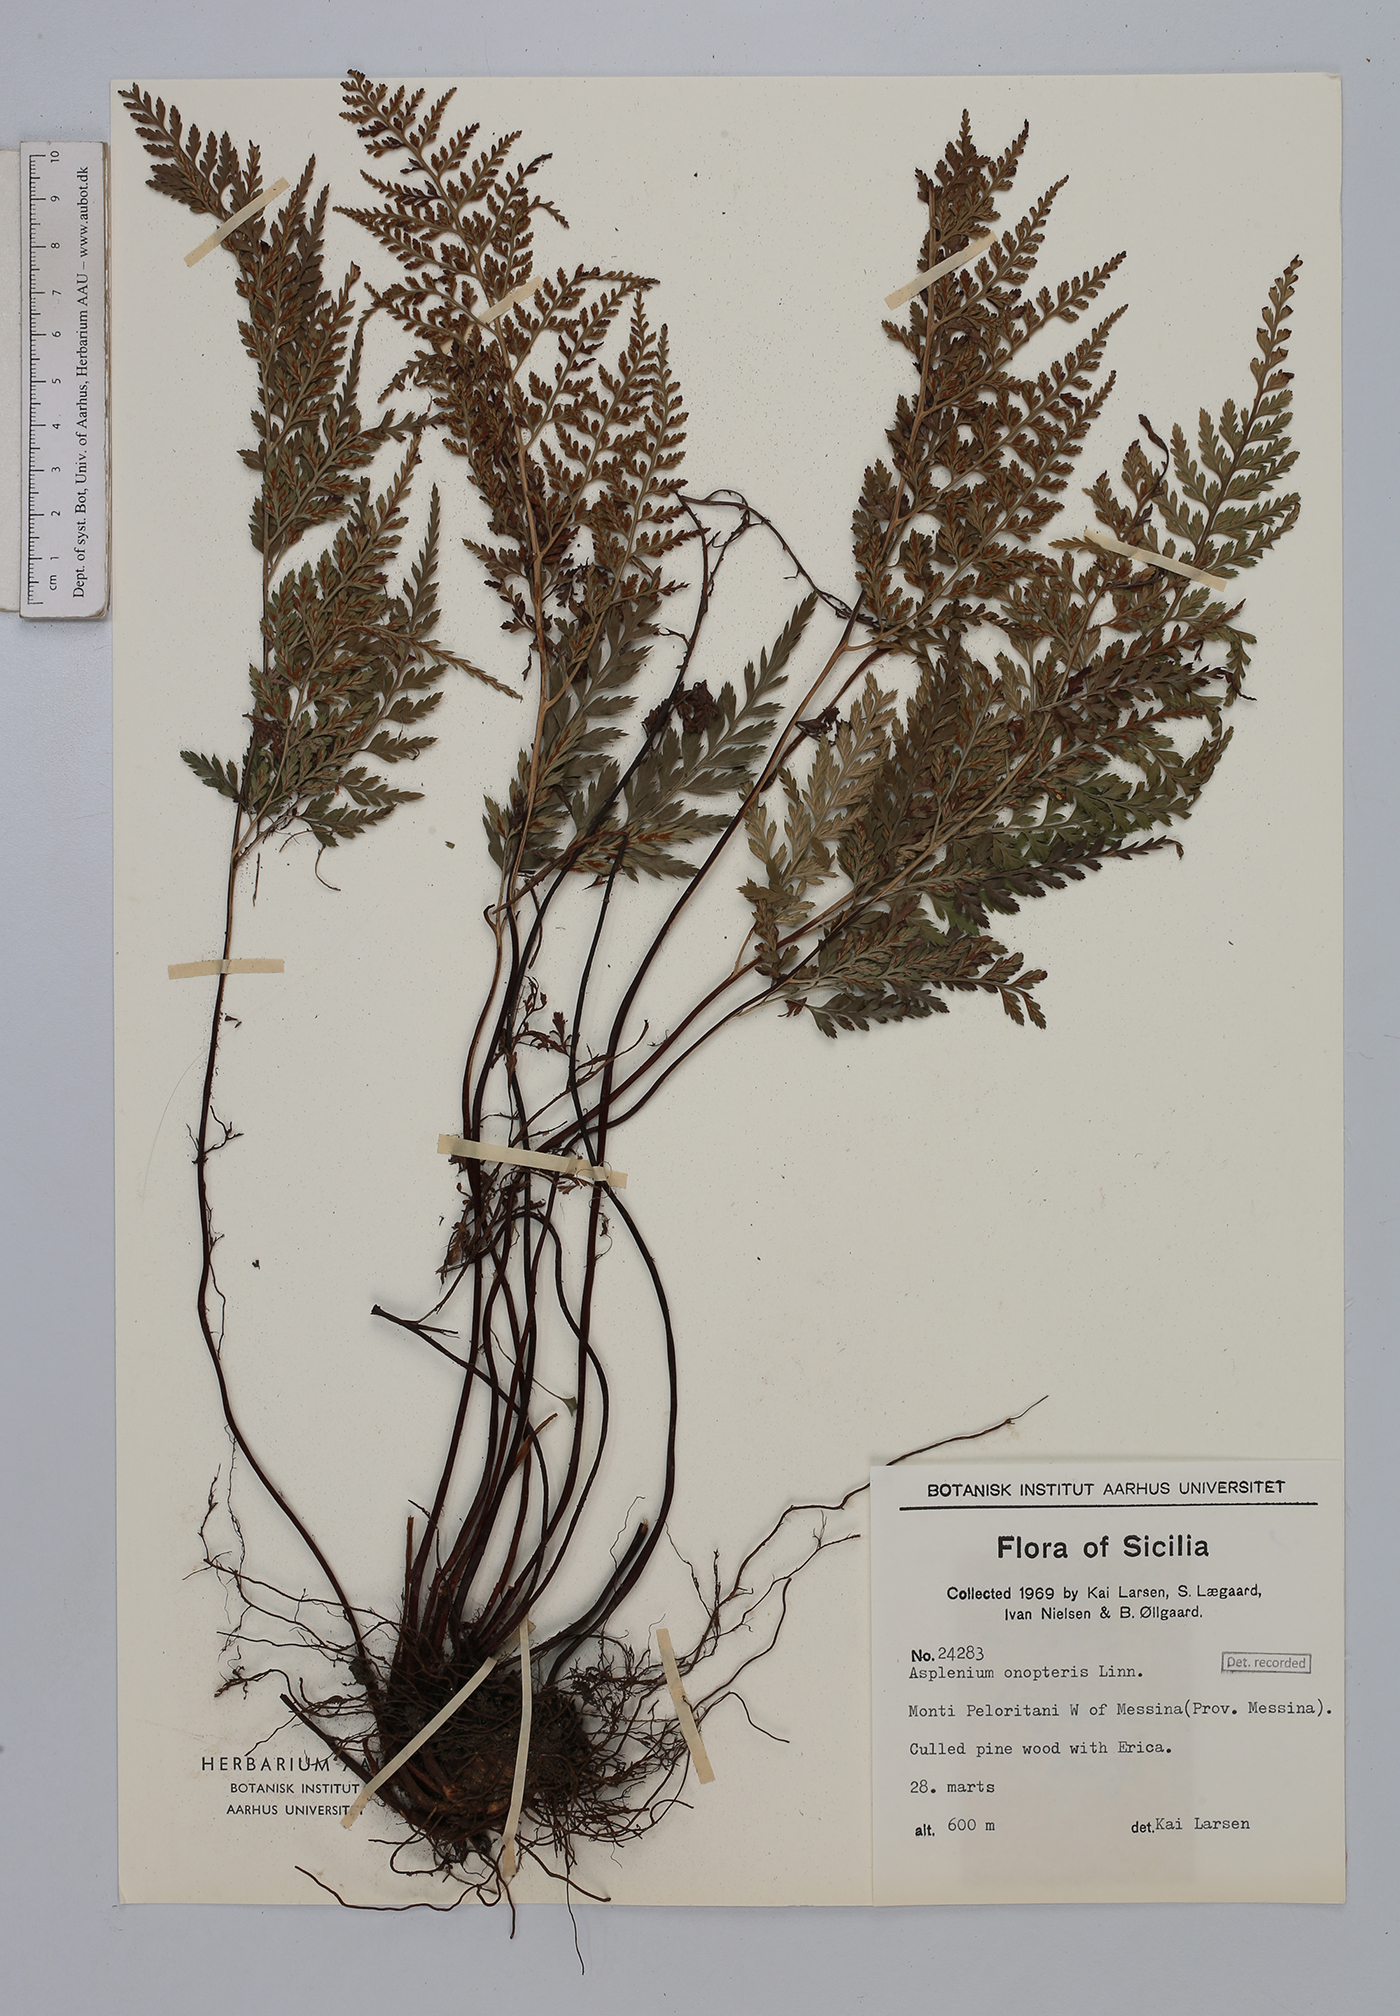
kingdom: Plantae
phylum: Tracheophyta
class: Polypodiopsida
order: Polypodiales
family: Aspleniaceae
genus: Asplenium
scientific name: Asplenium onopteris
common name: Irish spleenwort
